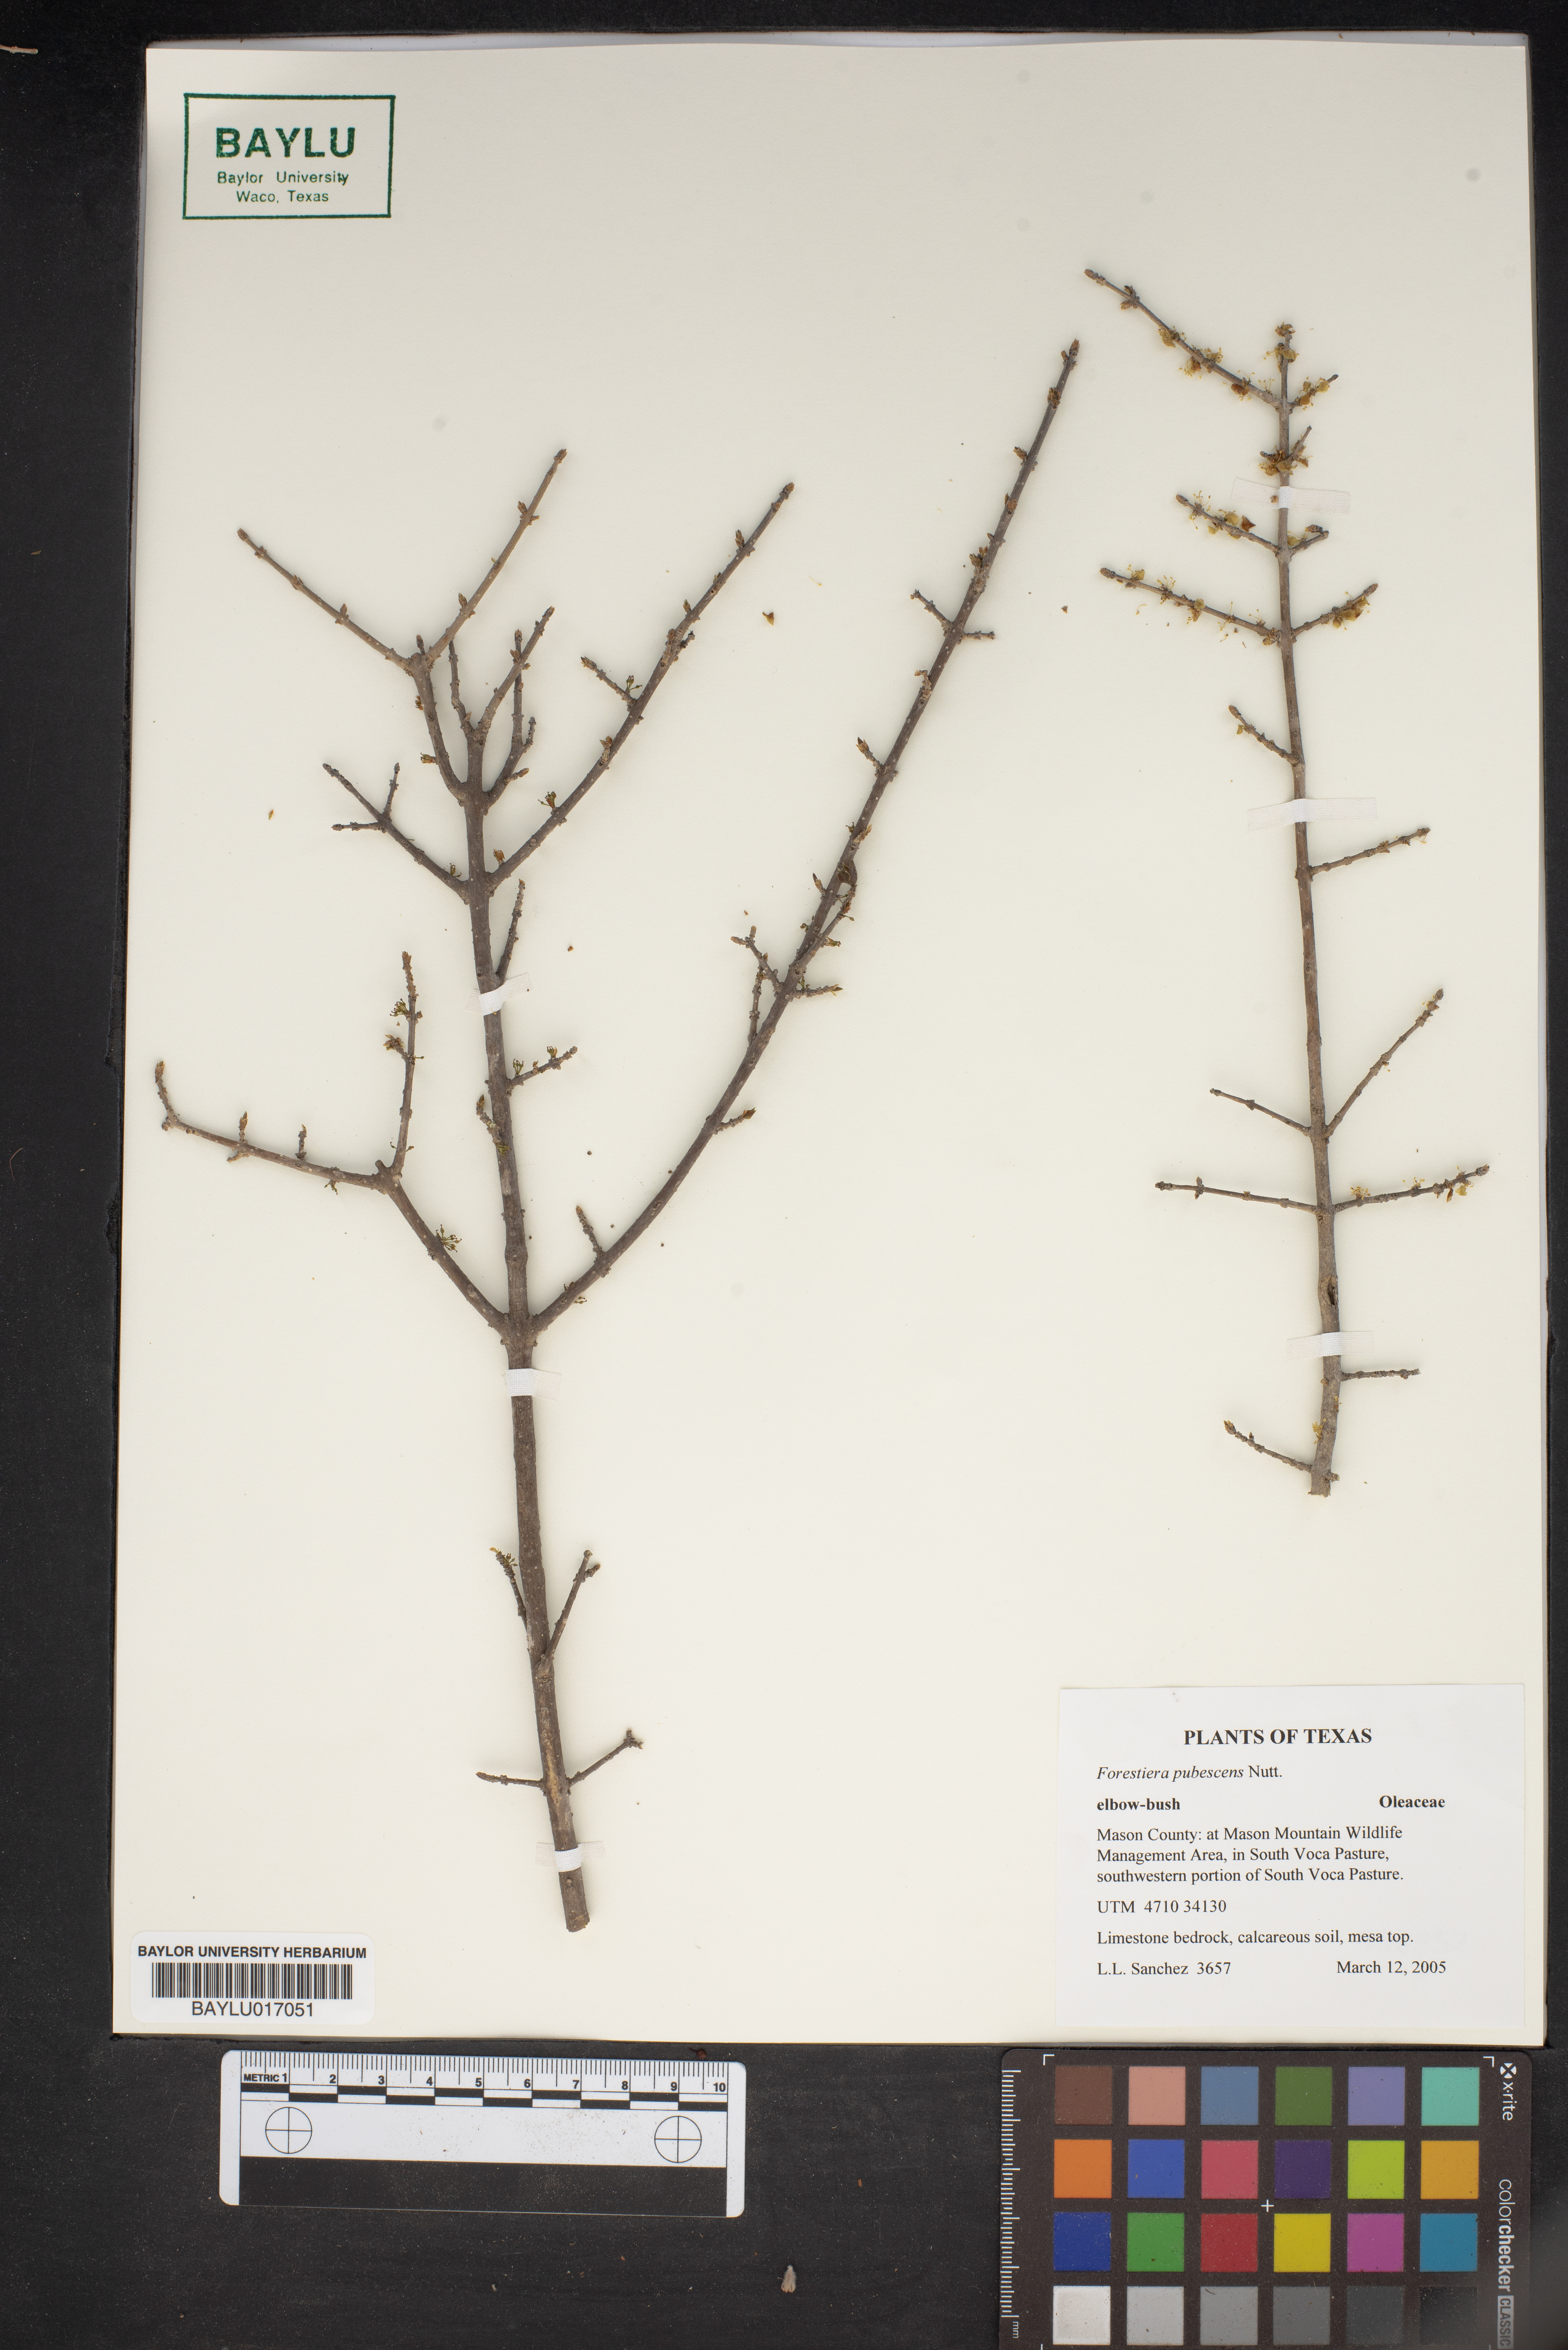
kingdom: Plantae
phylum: Tracheophyta
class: Magnoliopsida
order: Lamiales
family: Oleaceae
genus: Forestiera
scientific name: Forestiera pubescens
